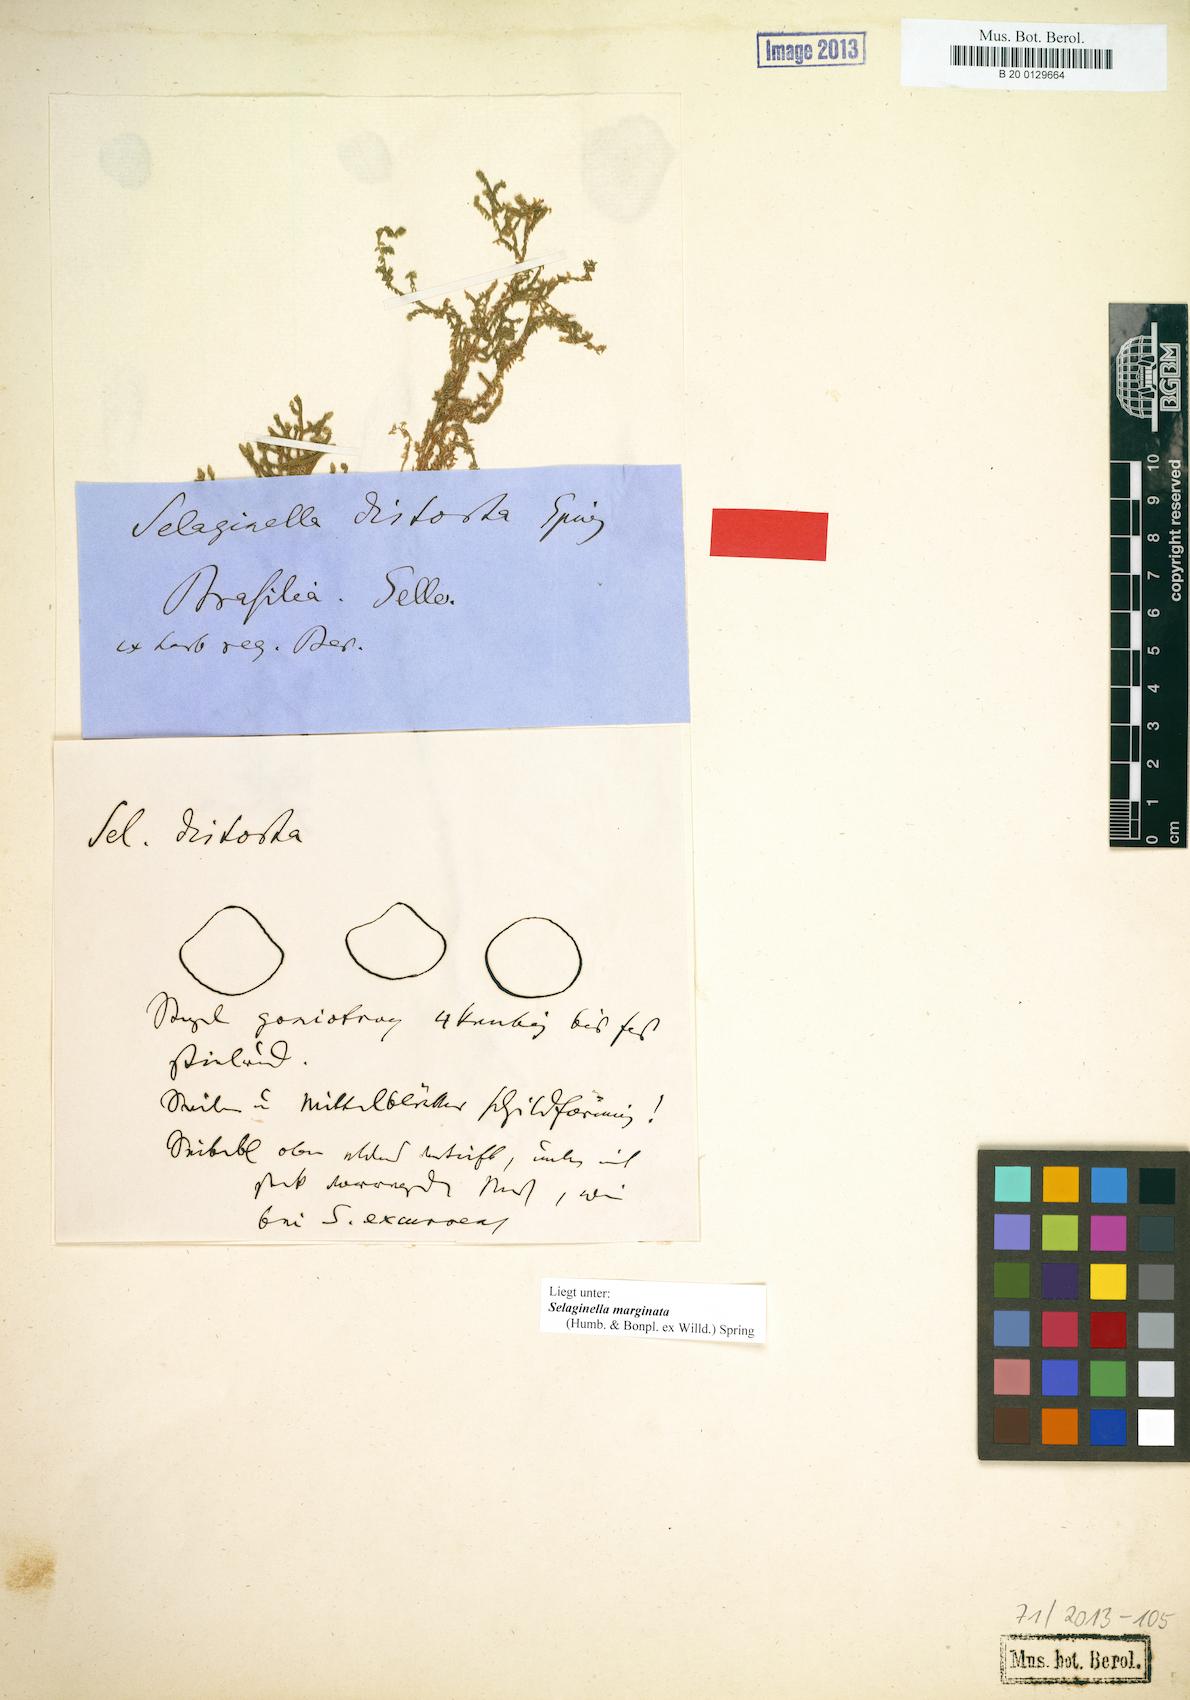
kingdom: Plantae
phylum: Tracheophyta
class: Lycopodiopsida
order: Selaginellales
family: Selaginellaceae
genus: Selaginella
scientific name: Selaginella marginata
